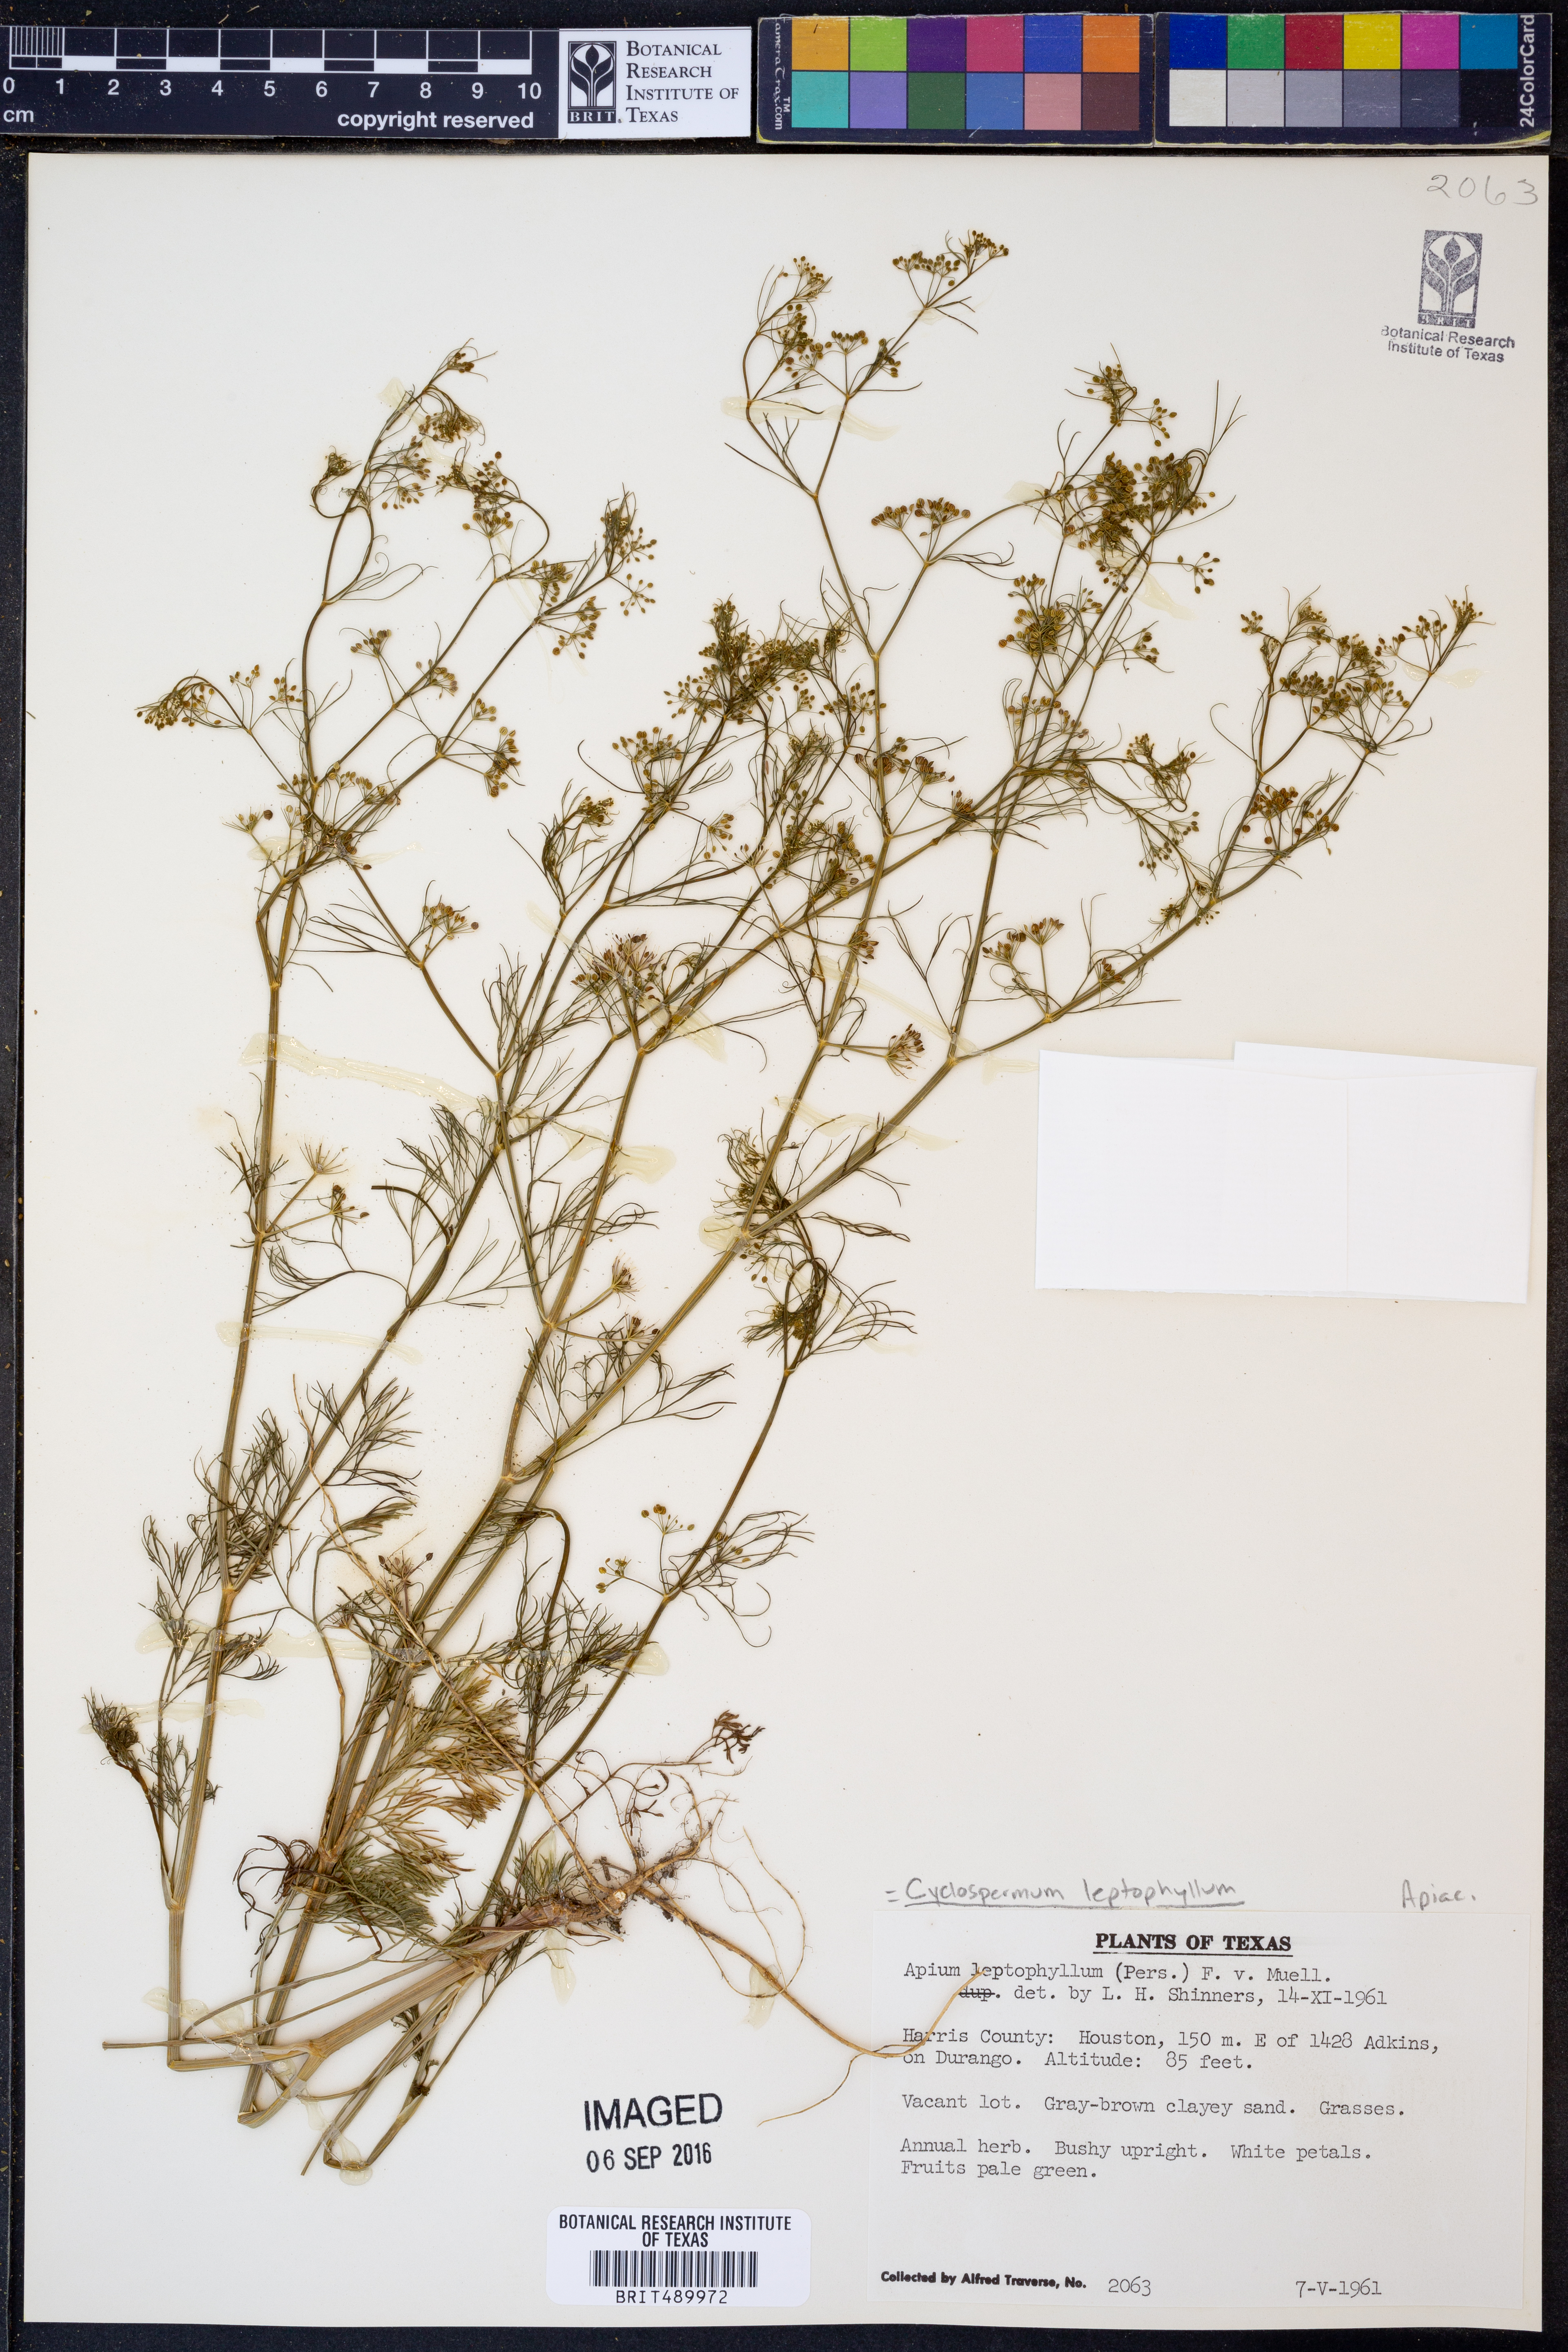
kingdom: Plantae
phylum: Tracheophyta
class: Magnoliopsida
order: Apiales
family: Apiaceae
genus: Cyclospermum
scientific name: Cyclospermum leptophyllum
